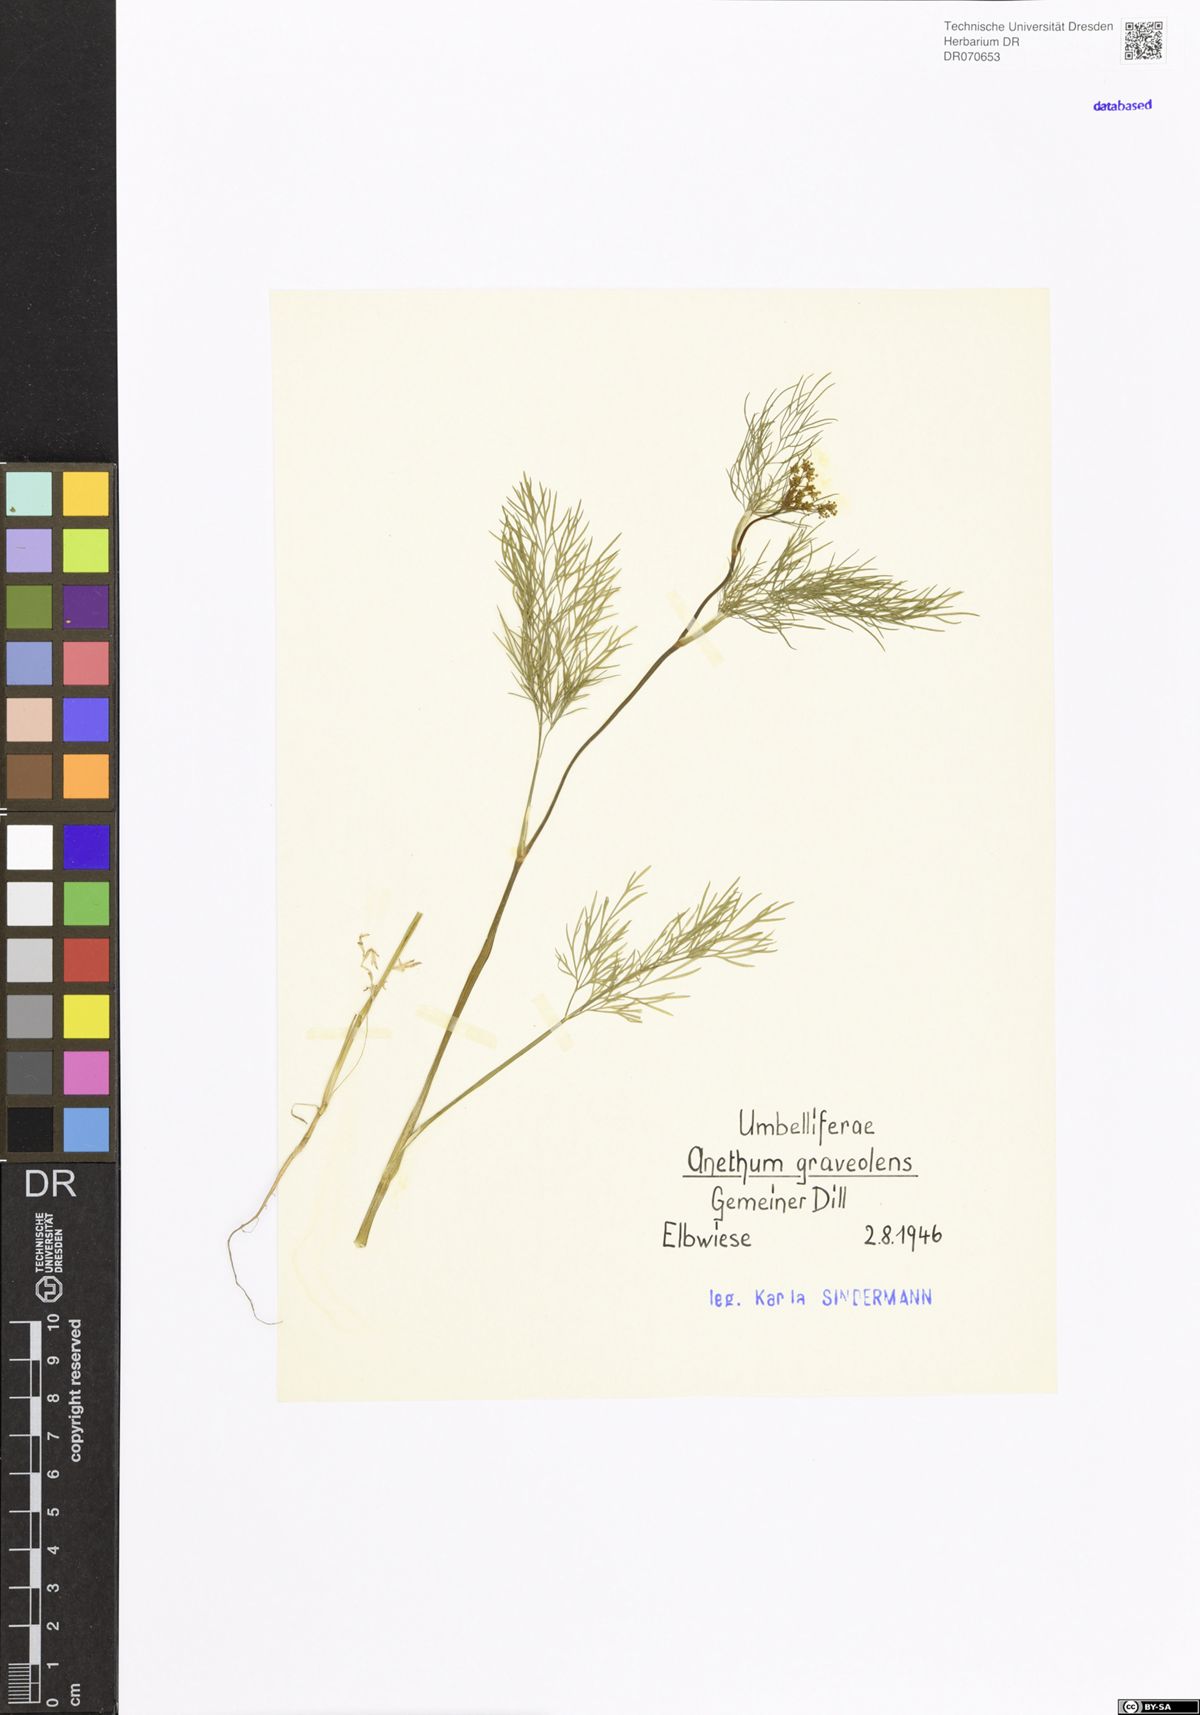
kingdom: Plantae
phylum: Tracheophyta
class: Magnoliopsida
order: Apiales
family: Apiaceae
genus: Anethum
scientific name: Anethum graveolens
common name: Dill
